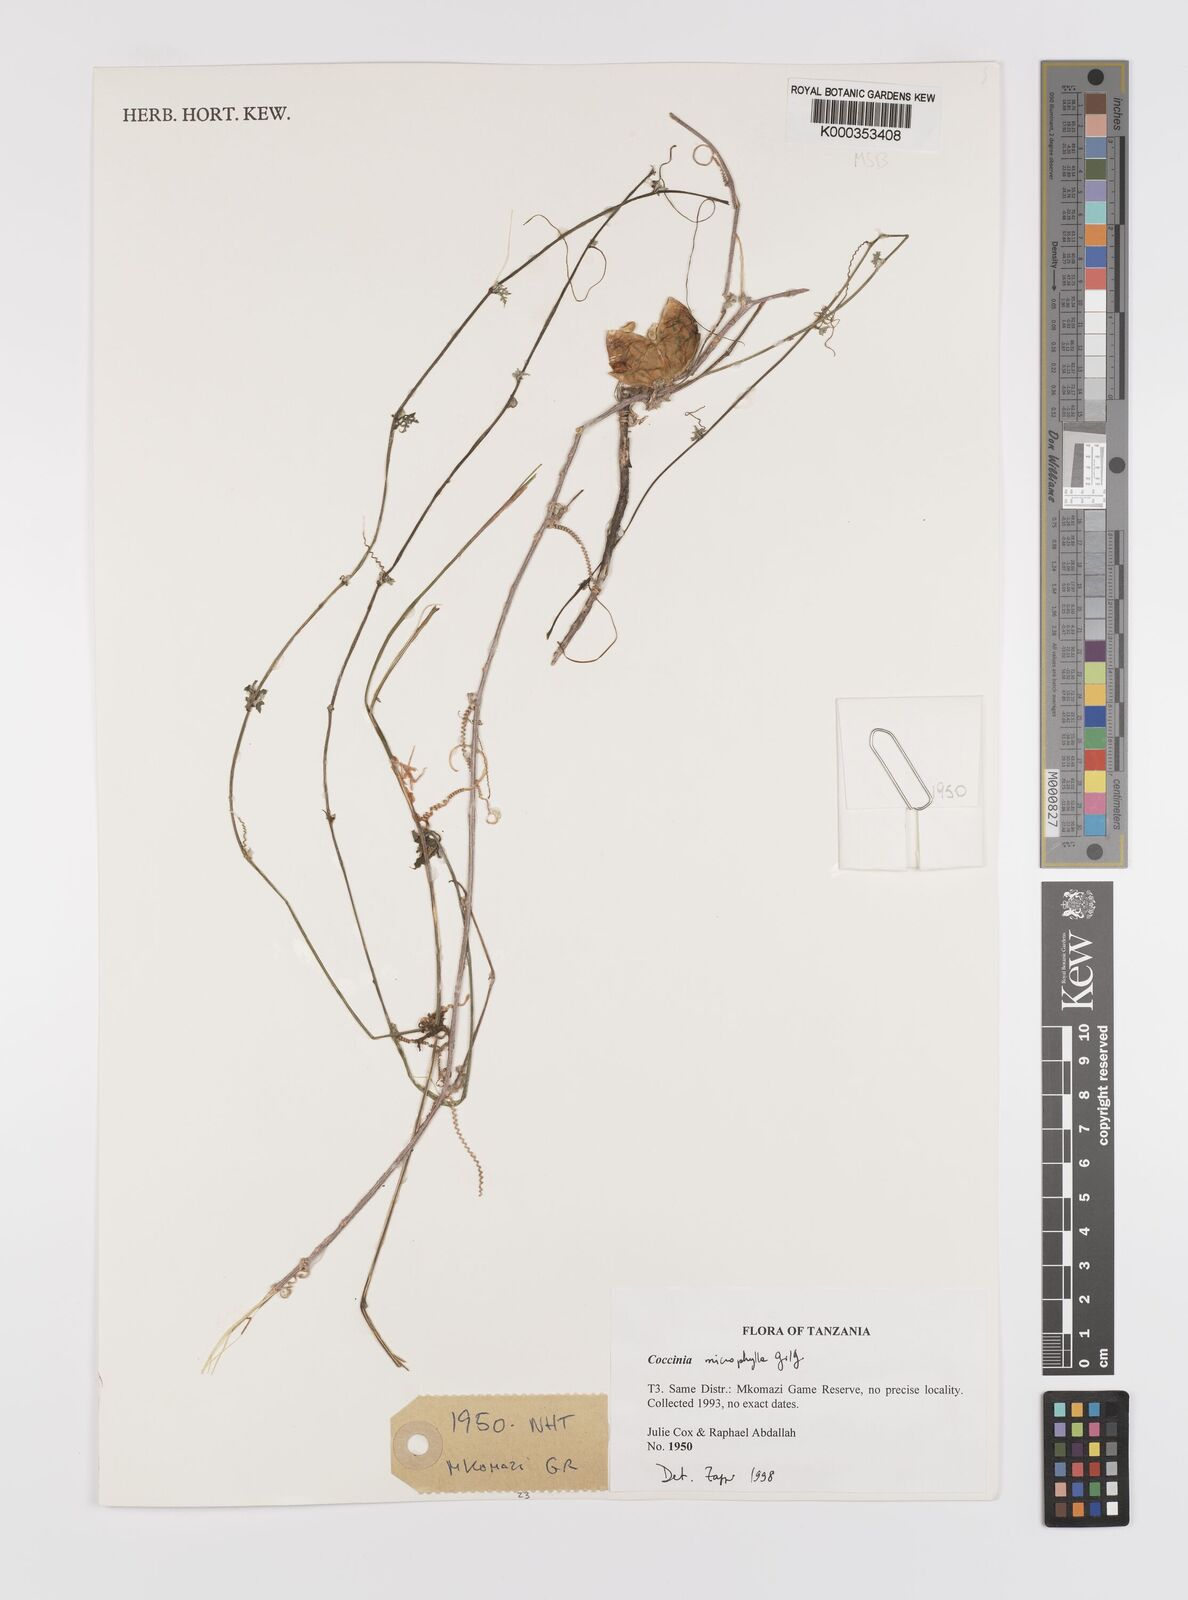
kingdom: Plantae
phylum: Tracheophyta
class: Magnoliopsida
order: Cucurbitales
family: Cucurbitaceae
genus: Coccinia
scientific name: Coccinia microphylla
